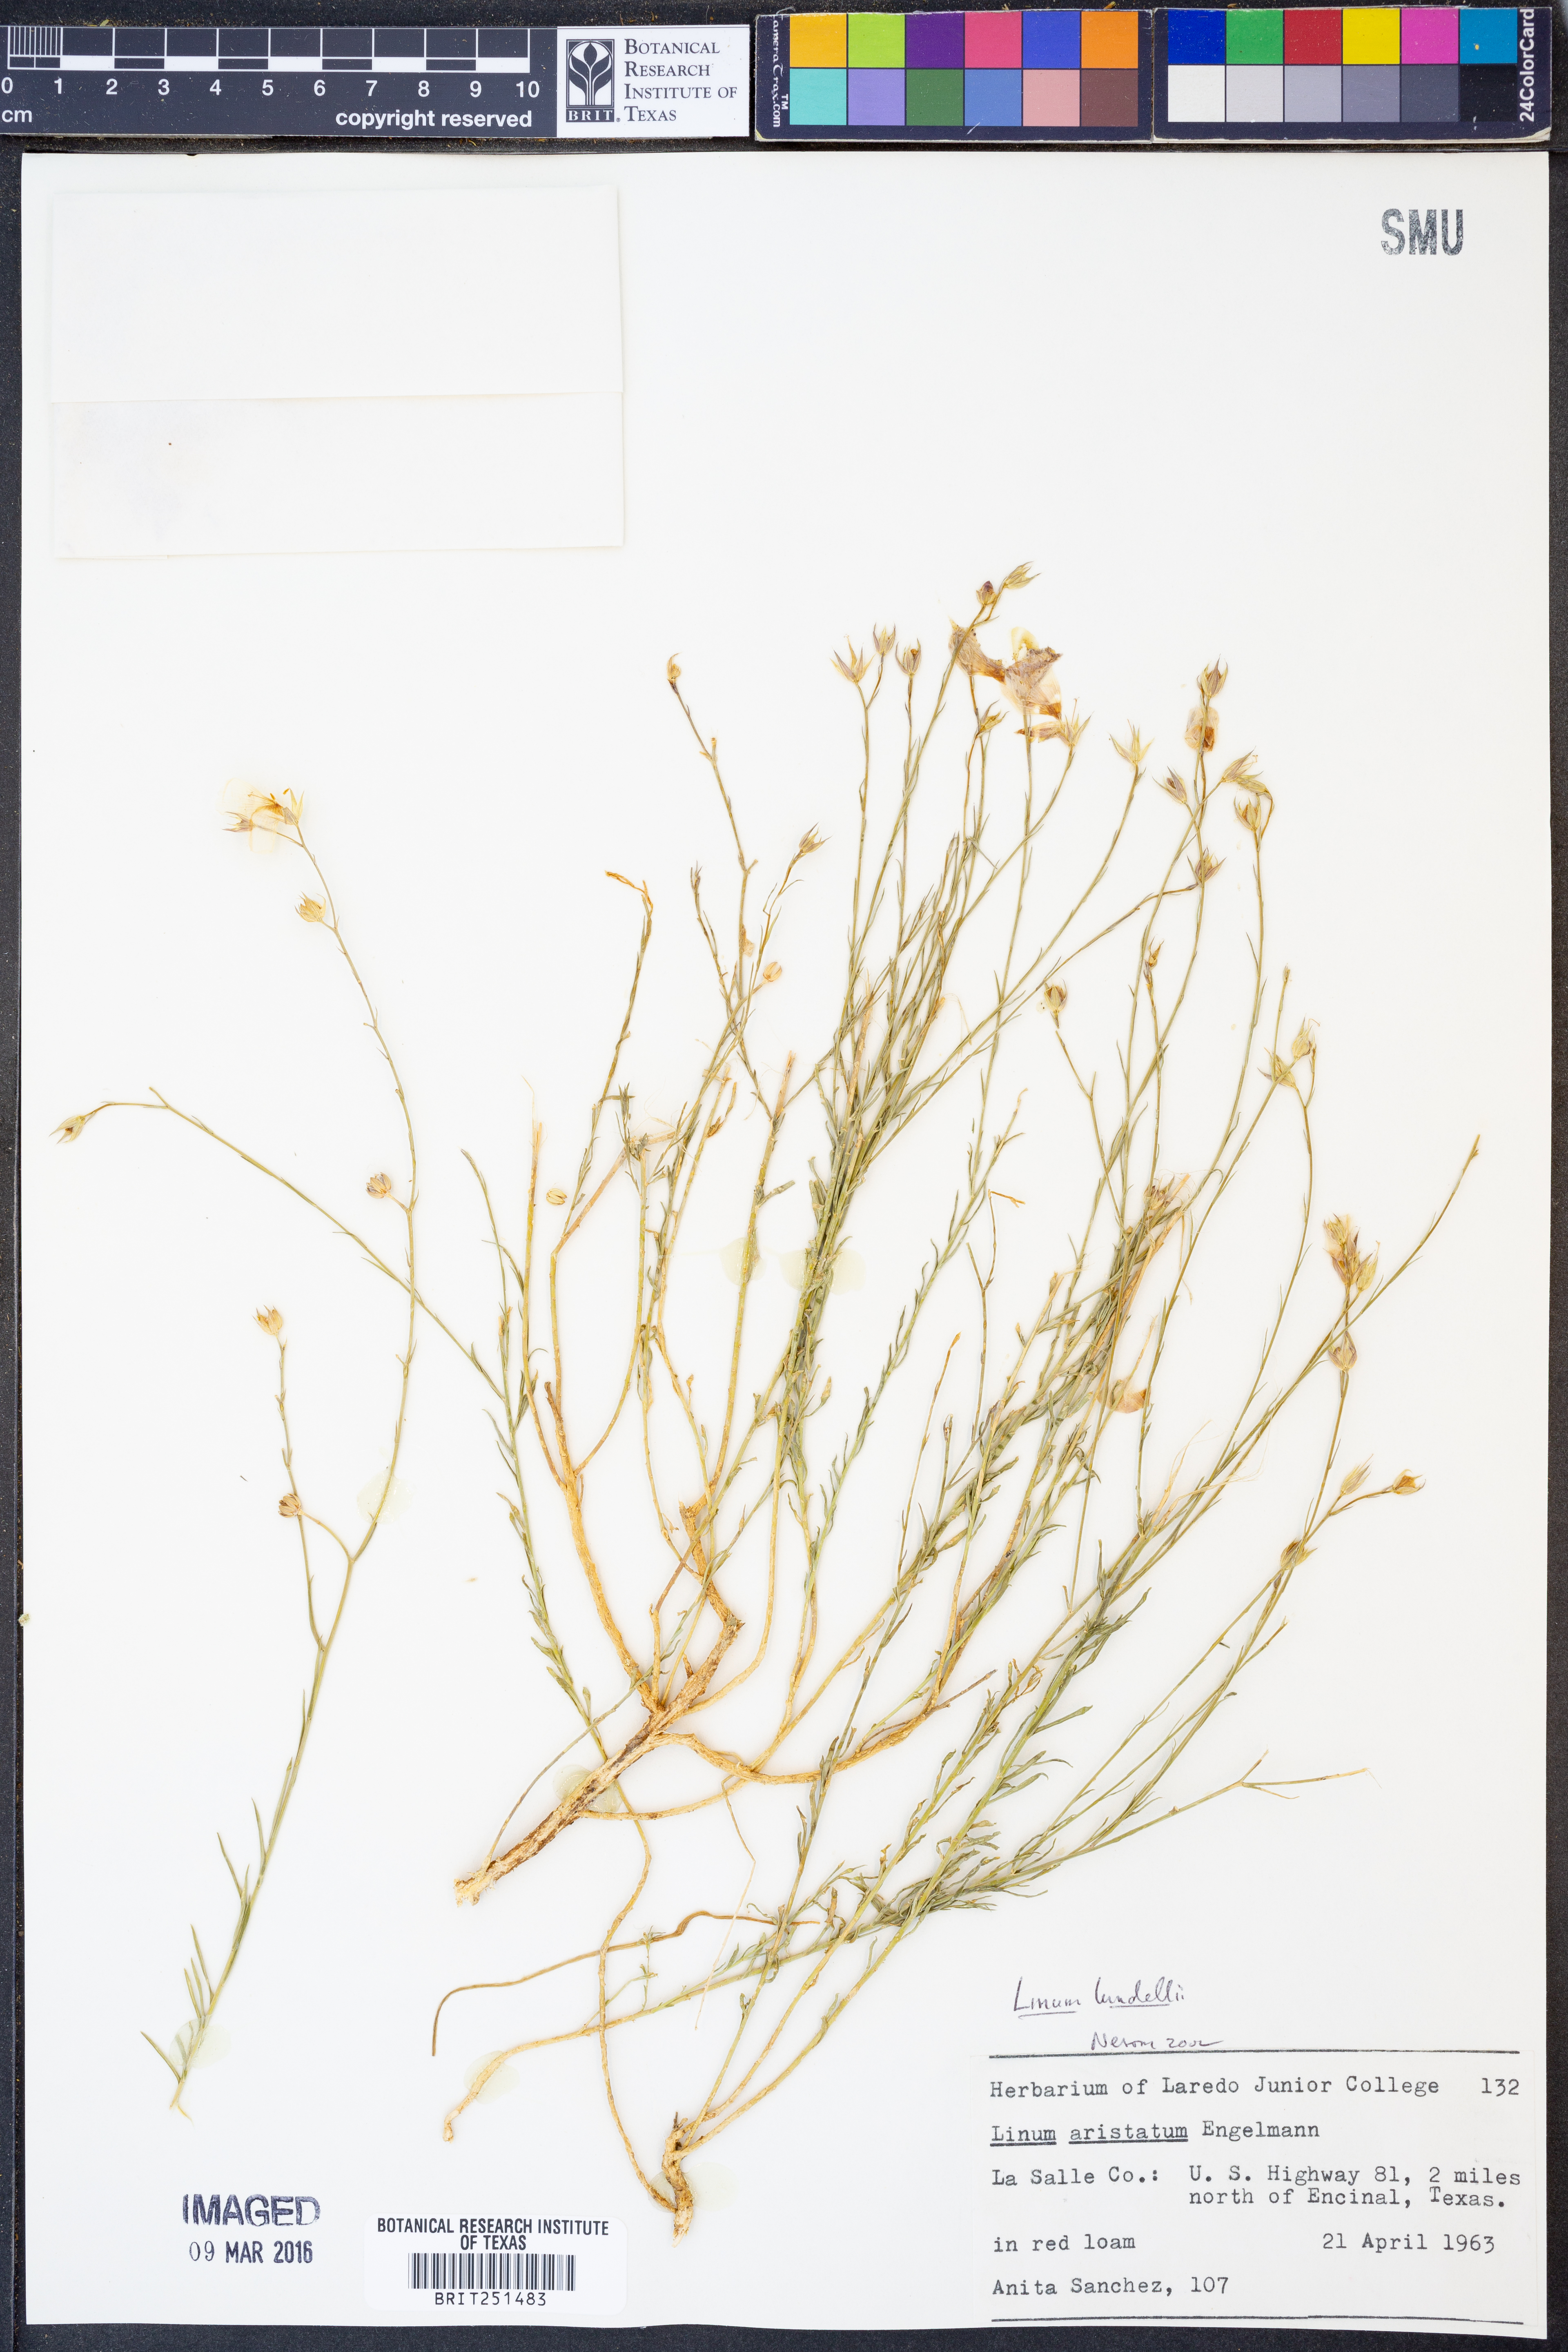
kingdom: Plantae
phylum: Tracheophyta
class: Magnoliopsida
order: Malpighiales
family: Linaceae
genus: Linum
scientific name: Linum lundellii
